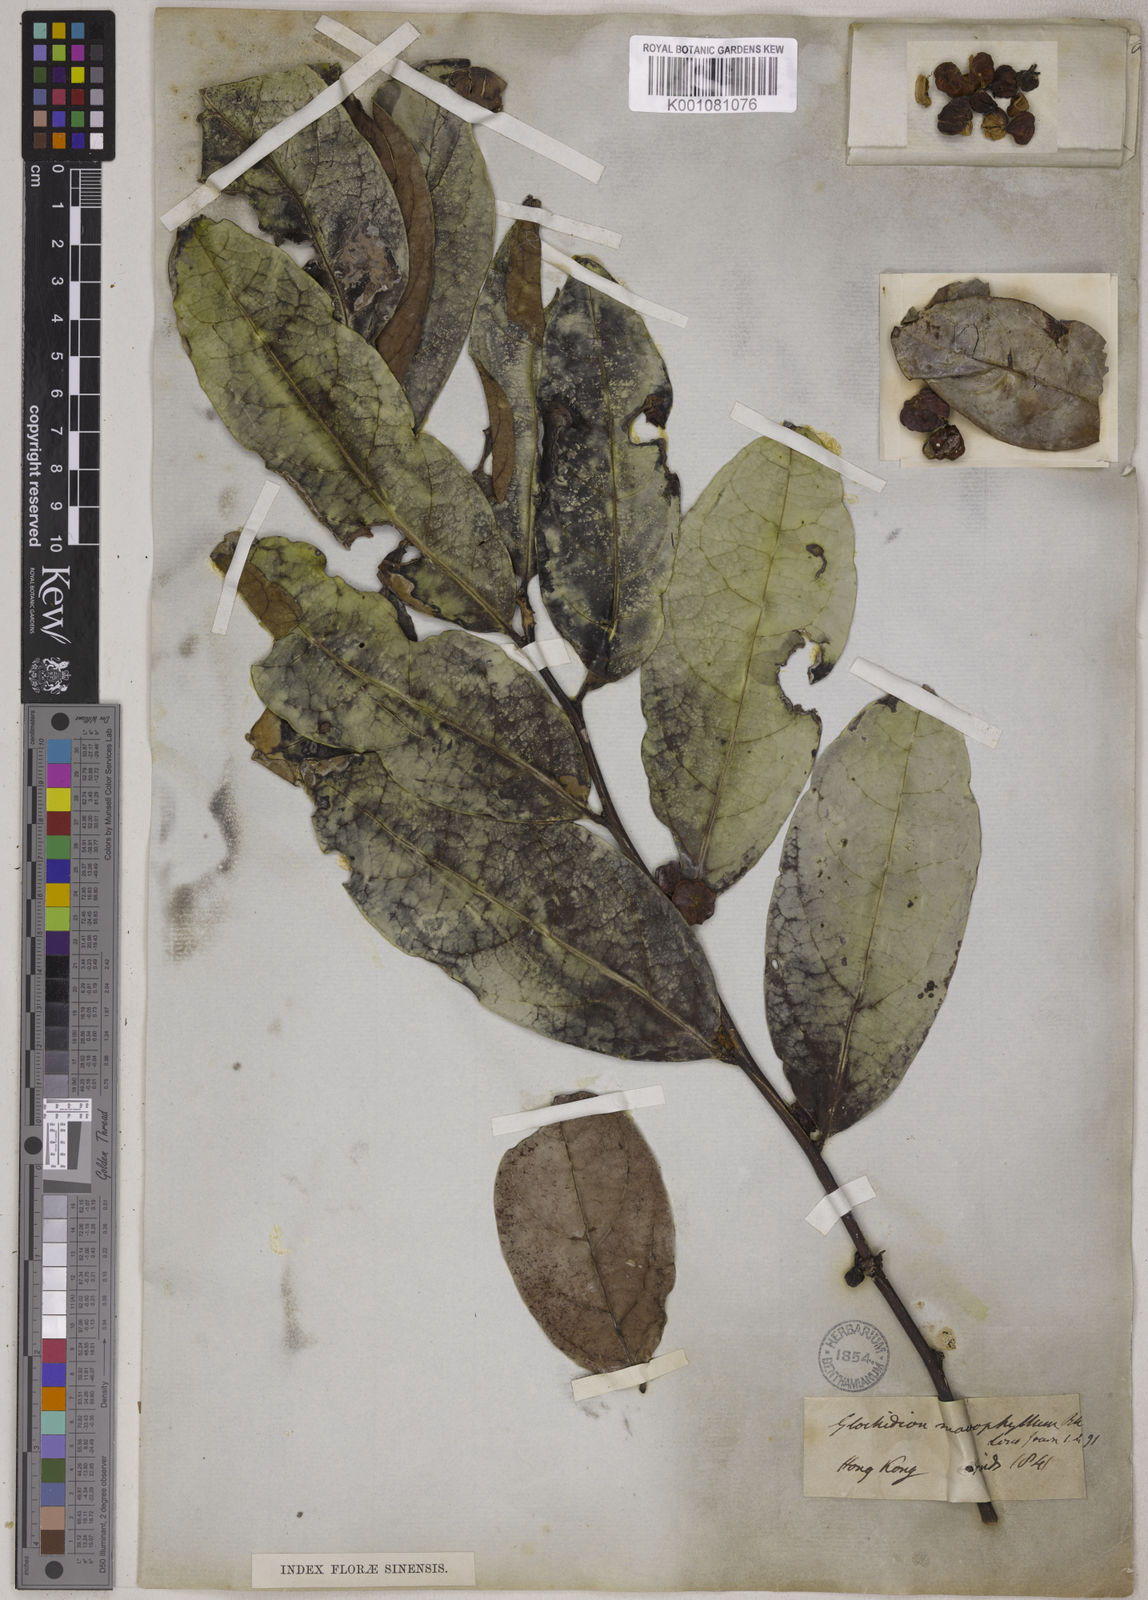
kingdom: Plantae
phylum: Tracheophyta
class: Magnoliopsida
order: Malpighiales
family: Phyllanthaceae
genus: Glochidion
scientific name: Glochidion lanceolarium
